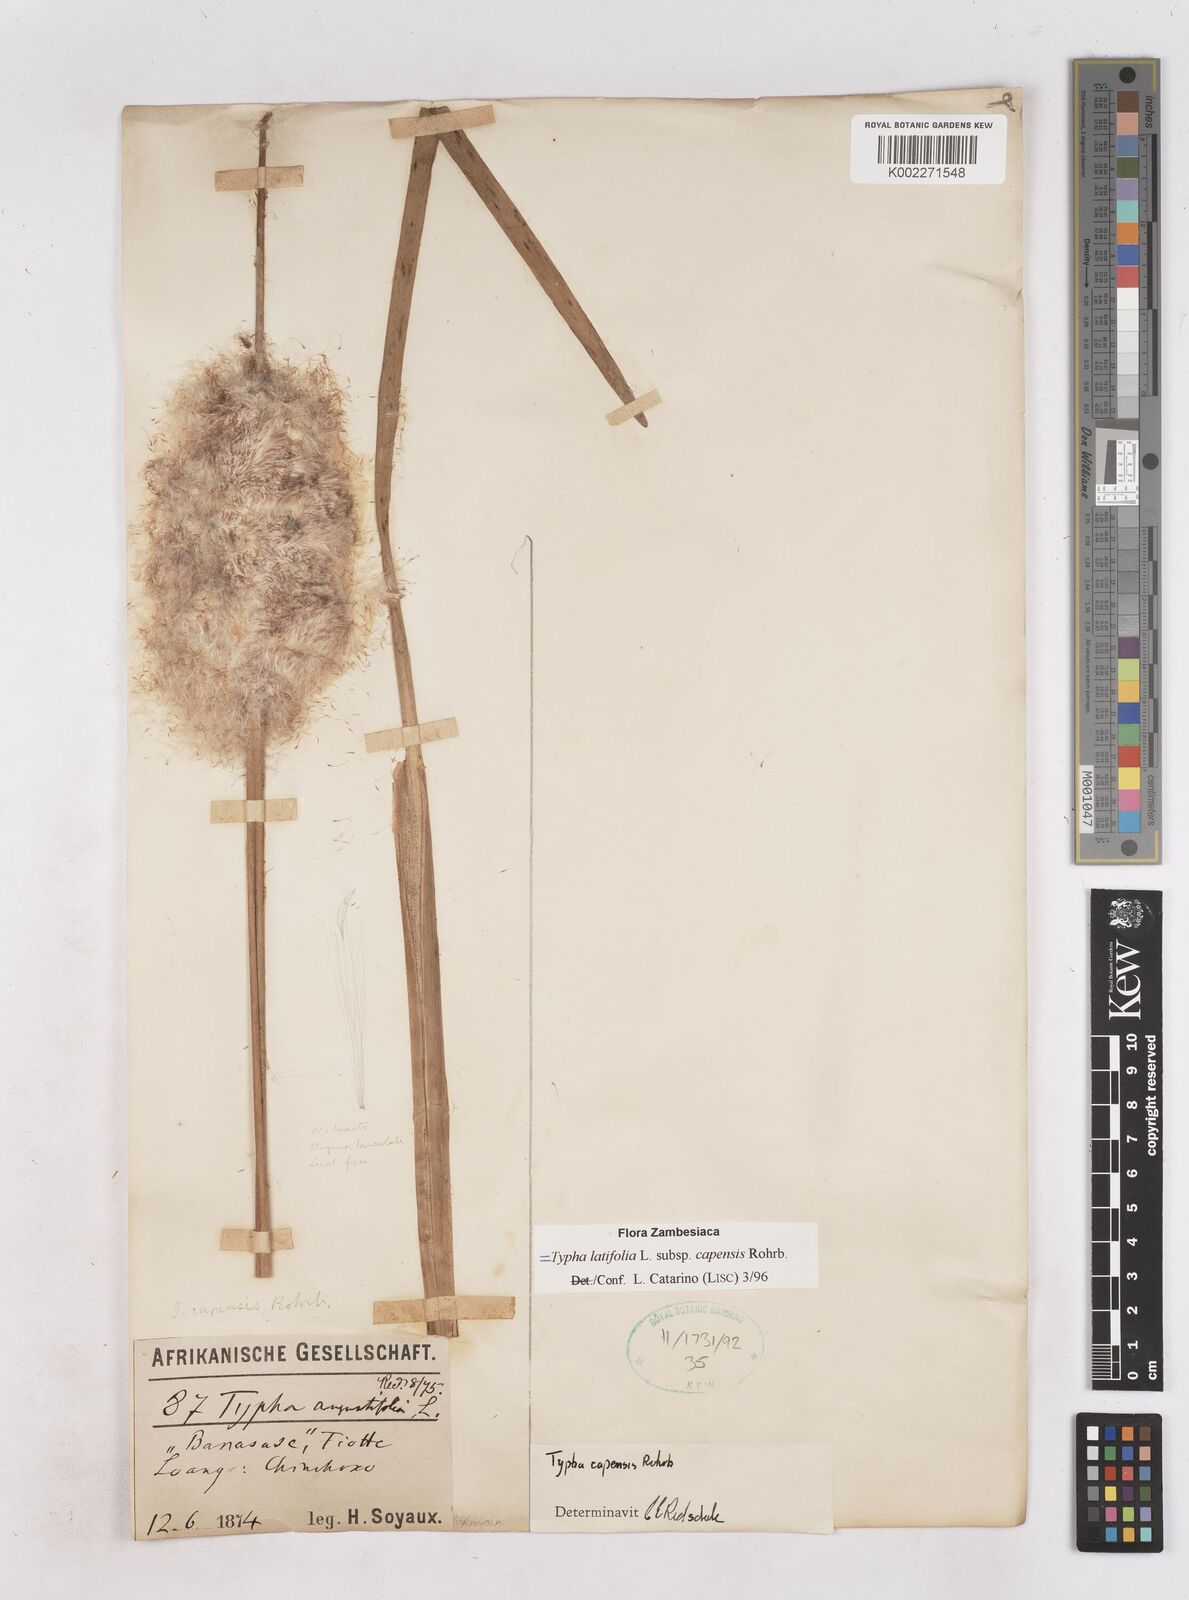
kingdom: Plantae
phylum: Tracheophyta
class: Liliopsida
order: Poales
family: Typhaceae
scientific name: Typhaceae
